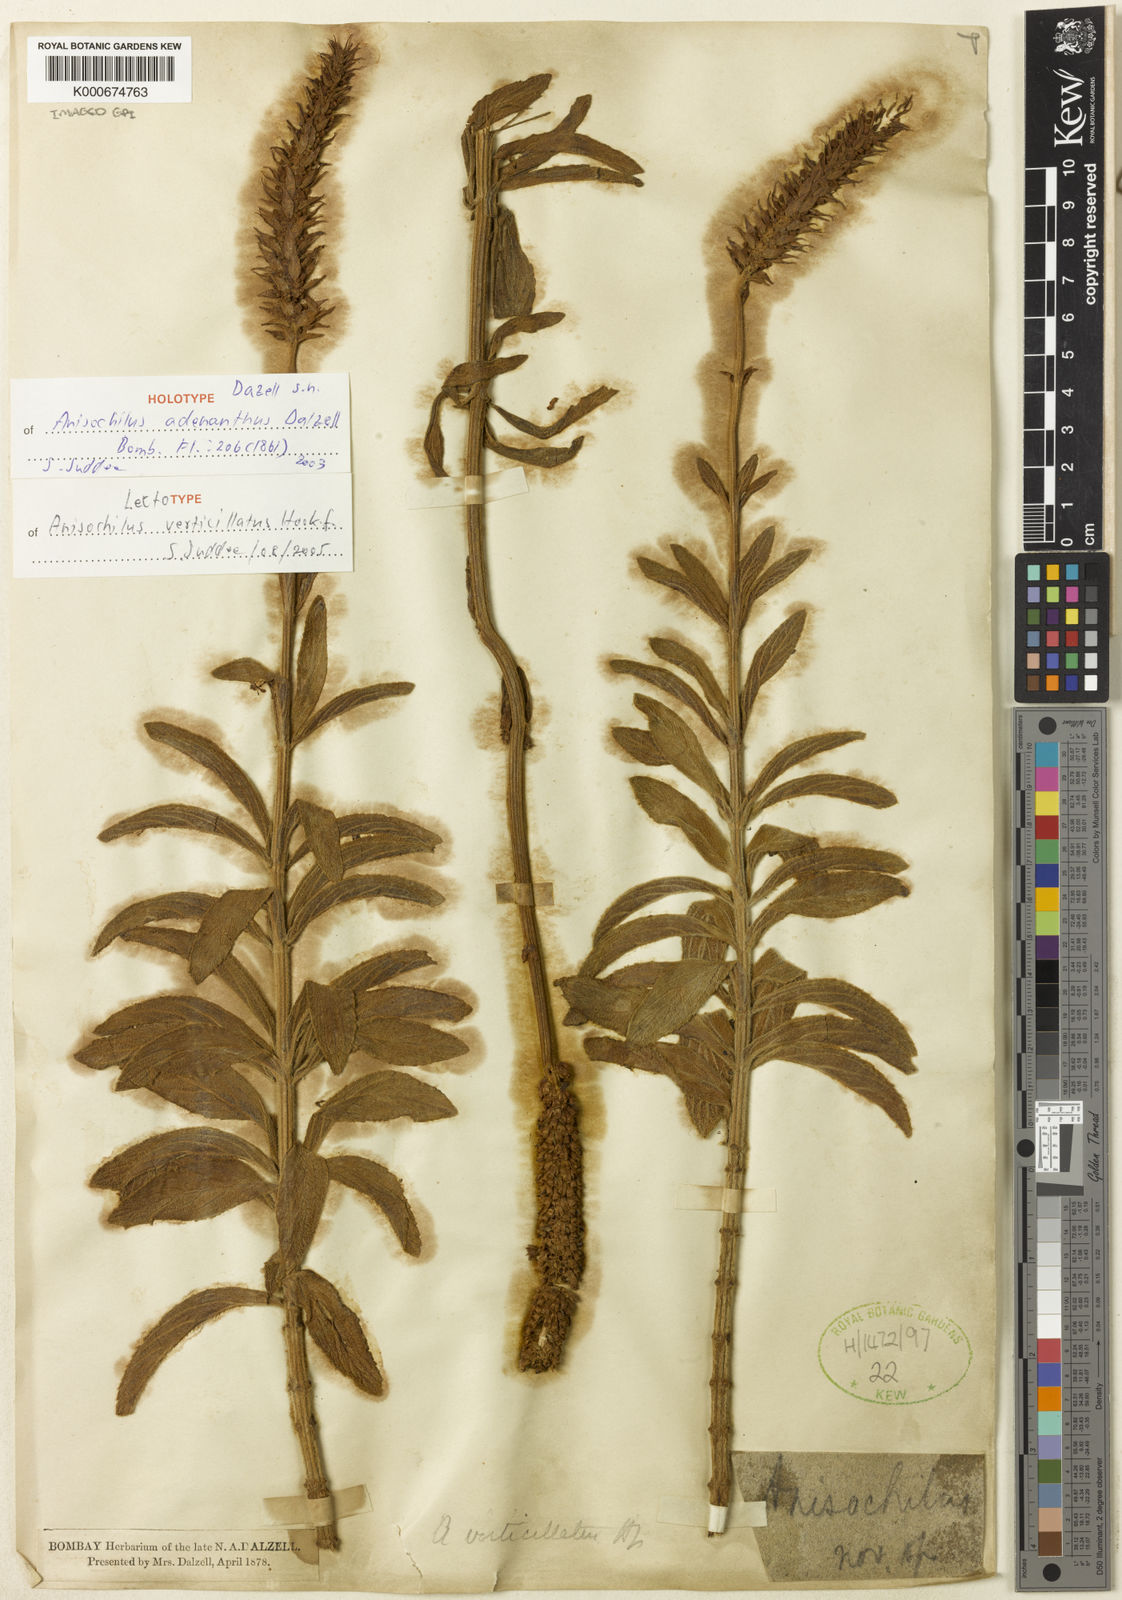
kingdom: Plantae
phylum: Tracheophyta
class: Magnoliopsida
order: Lamiales
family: Lamiaceae
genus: Coleus
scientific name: Coleus adenanthus
